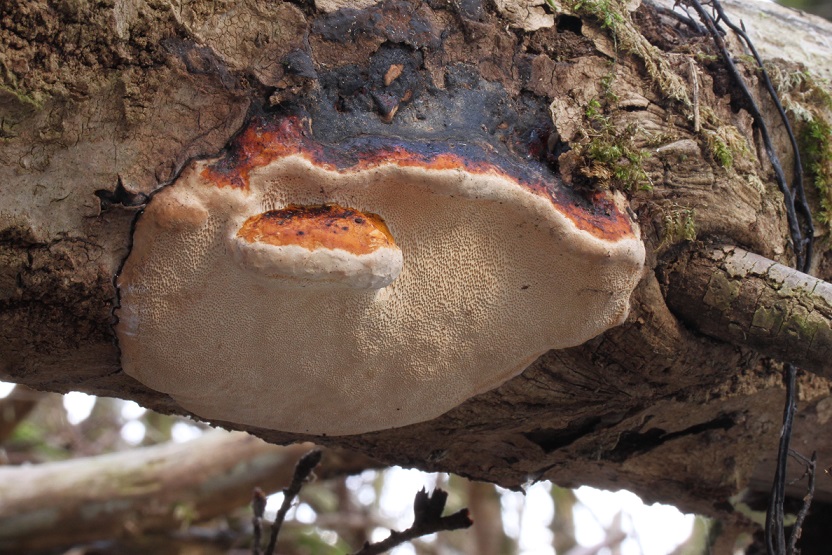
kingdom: Fungi
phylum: Basidiomycota
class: Agaricomycetes
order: Polyporales
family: Fomitopsidaceae
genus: Fomitopsis
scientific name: Fomitopsis pinicola
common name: randbæltet hovporesvamp
